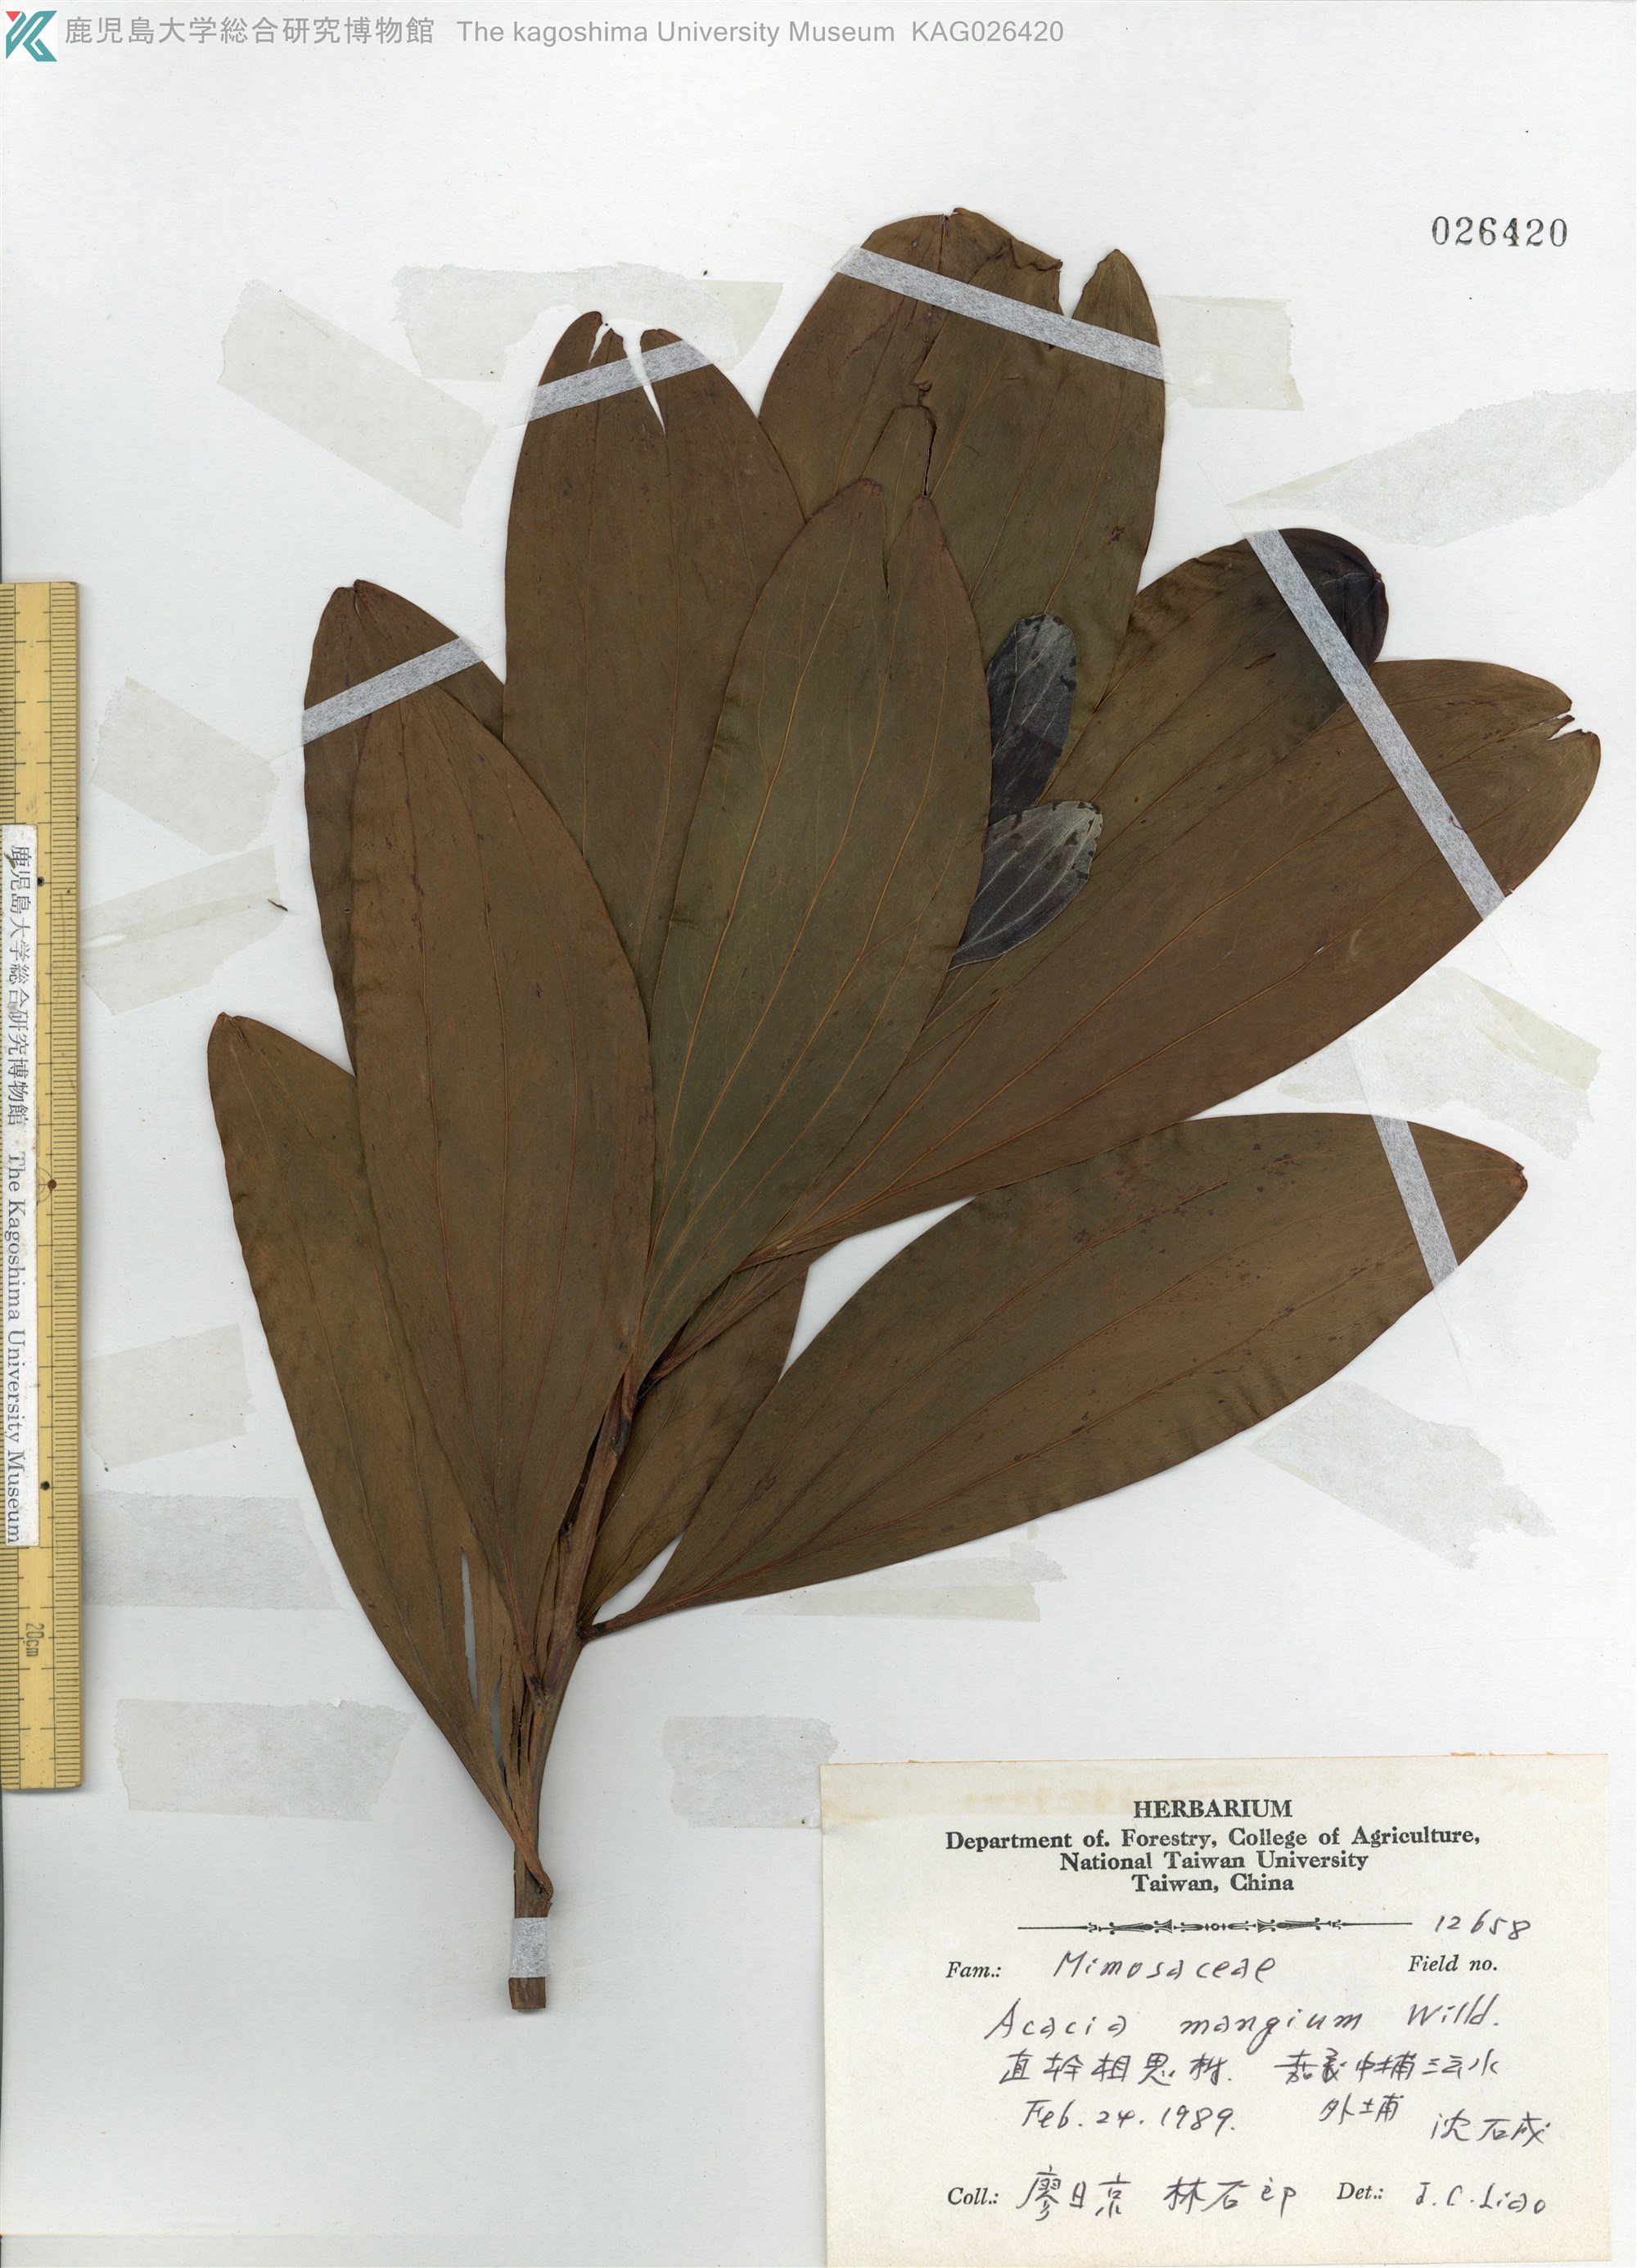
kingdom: Plantae
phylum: Tracheophyta
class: Magnoliopsida
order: Fabales
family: Fabaceae
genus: Acacia
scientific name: Acacia mangium
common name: Black wattle
